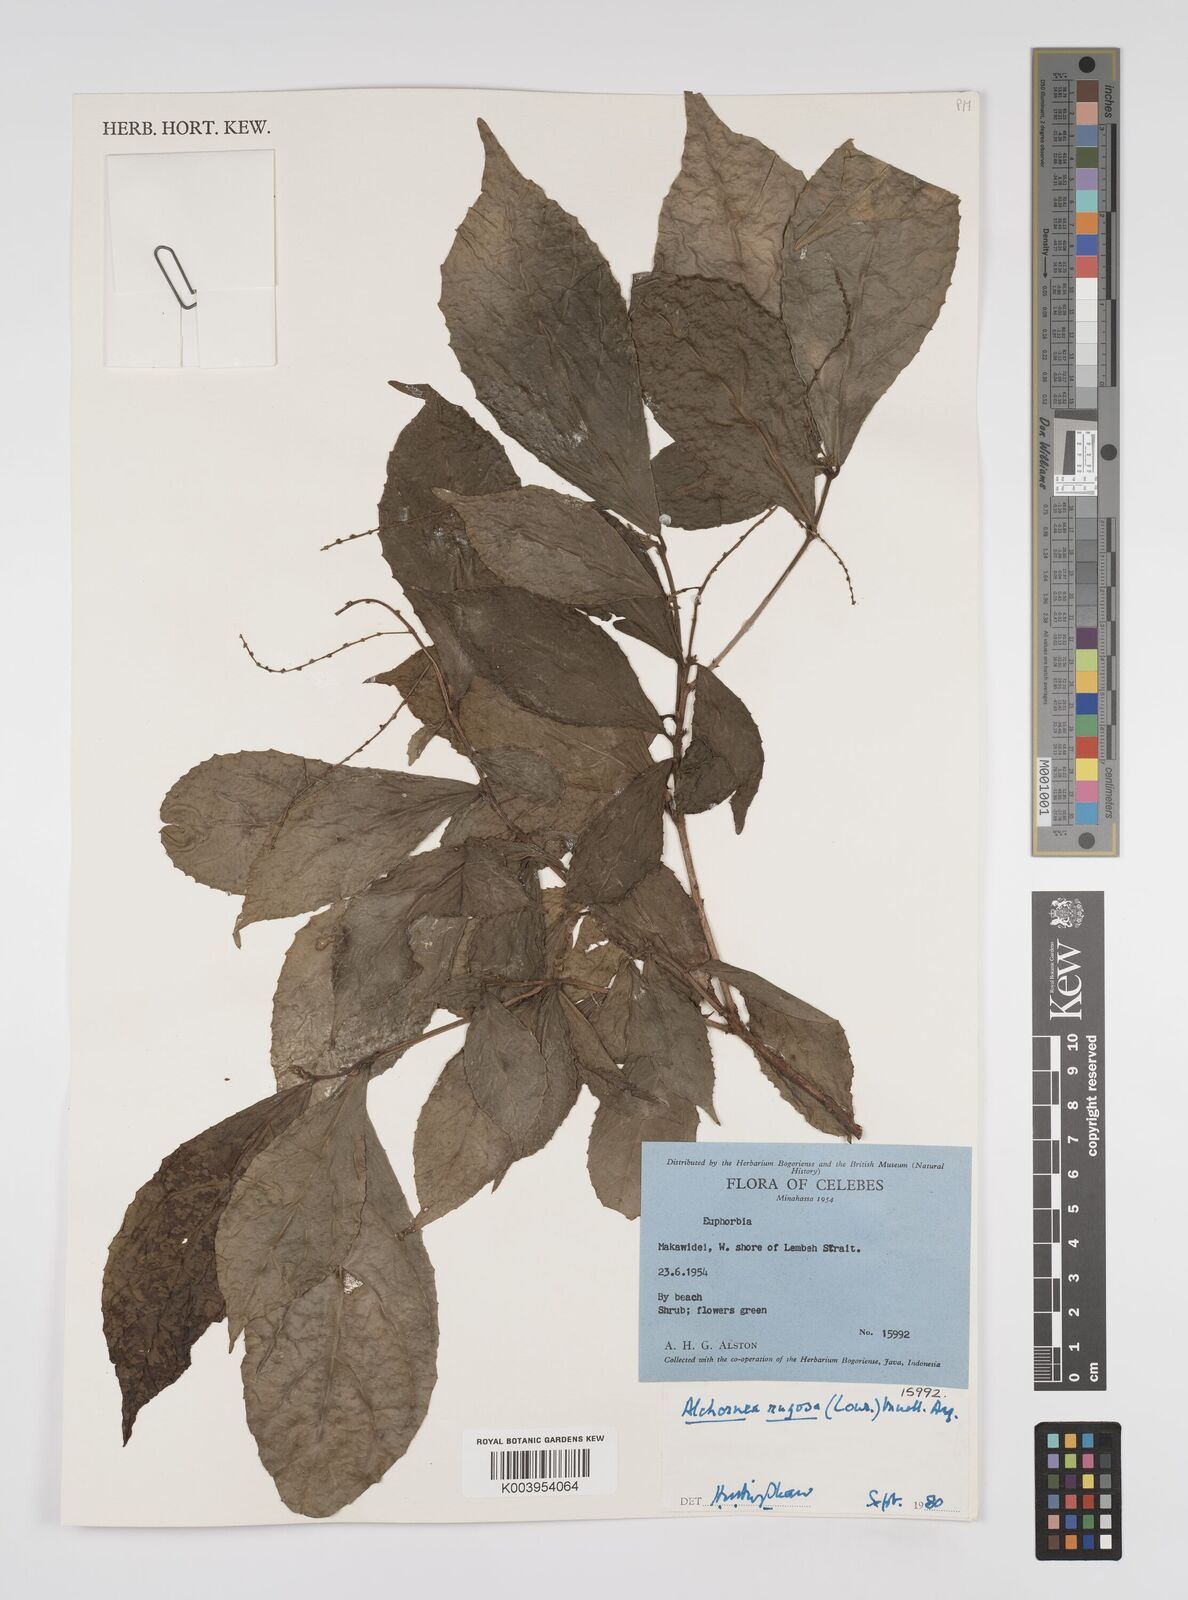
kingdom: Plantae
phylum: Tracheophyta
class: Magnoliopsida
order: Malpighiales
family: Euphorbiaceae
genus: Alchornea
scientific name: Alchornea rugosa
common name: Alchorntree
